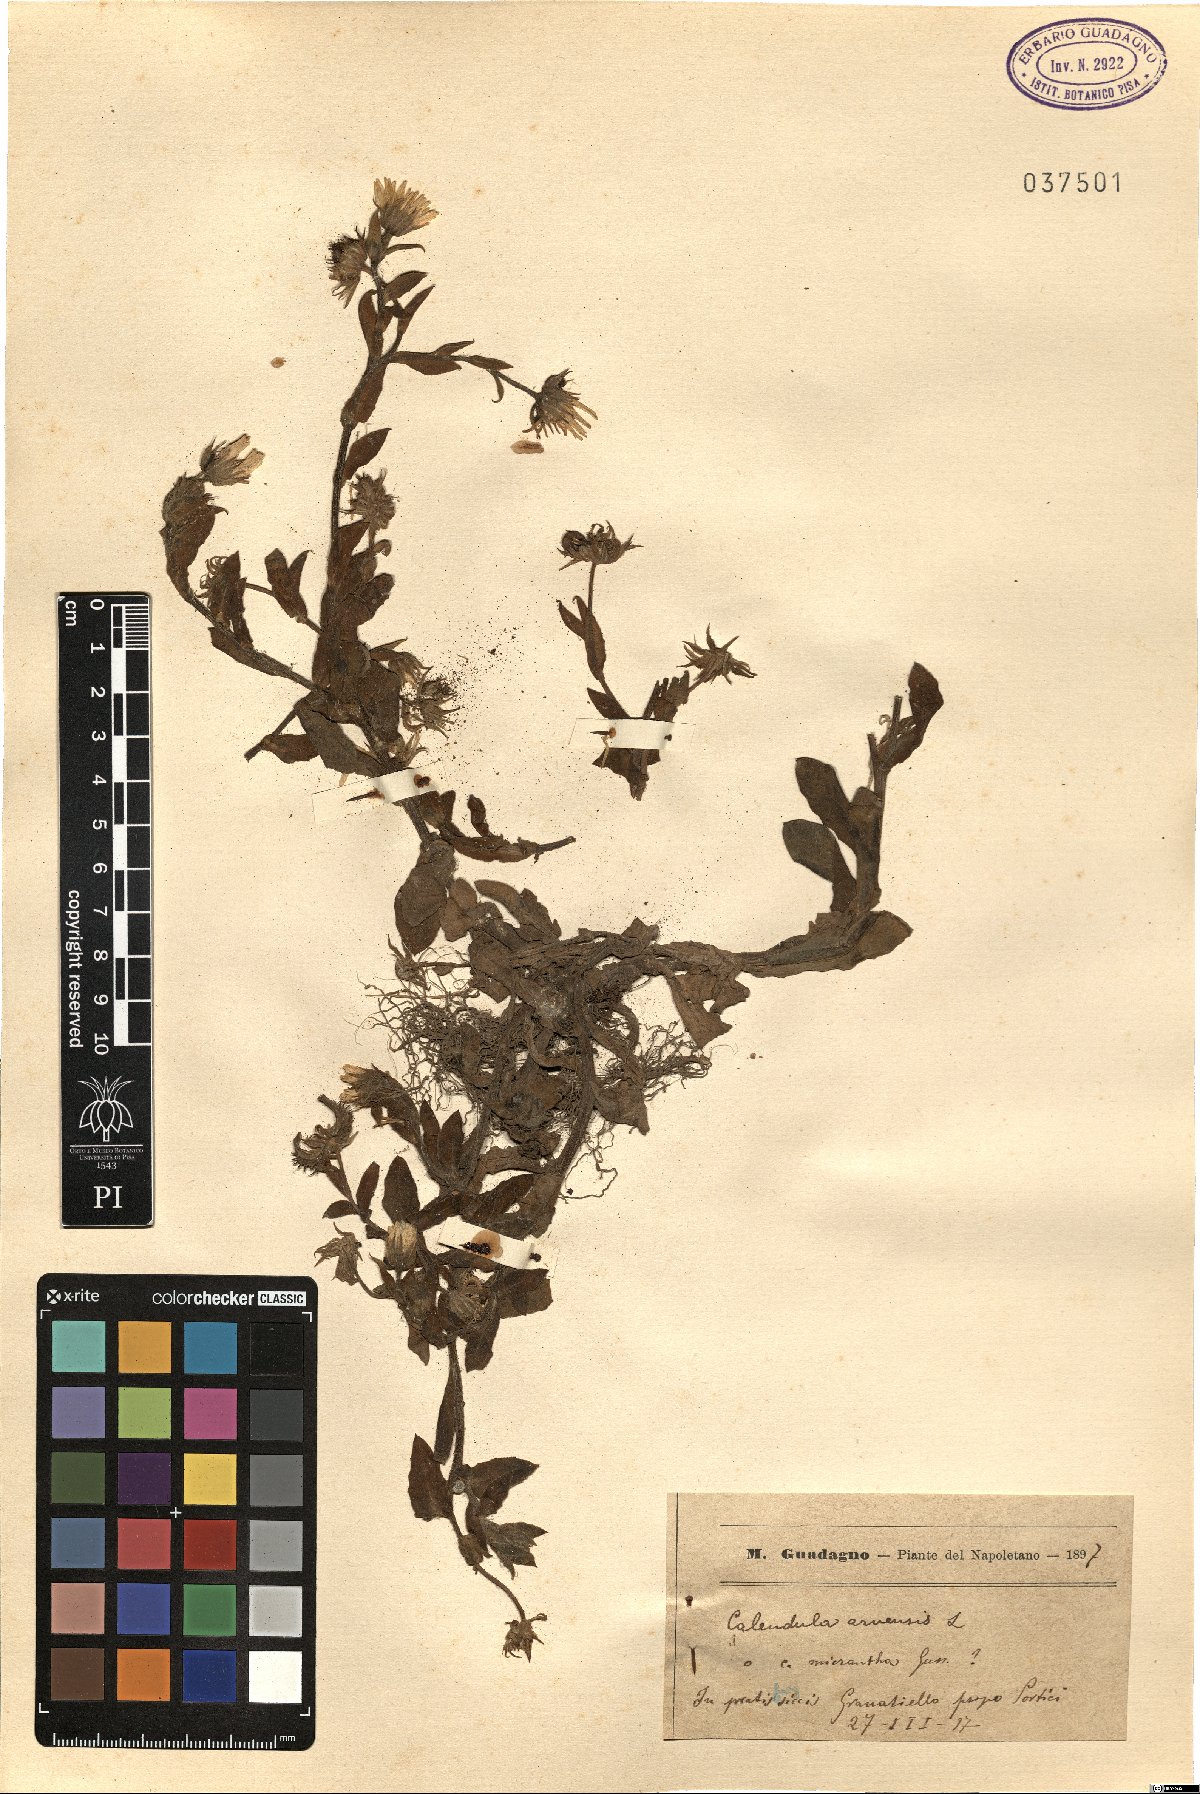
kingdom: Plantae
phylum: Tracheophyta
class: Magnoliopsida
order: Asterales
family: Asteraceae
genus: Calendula
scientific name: Calendula arvensis
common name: Field marigold
